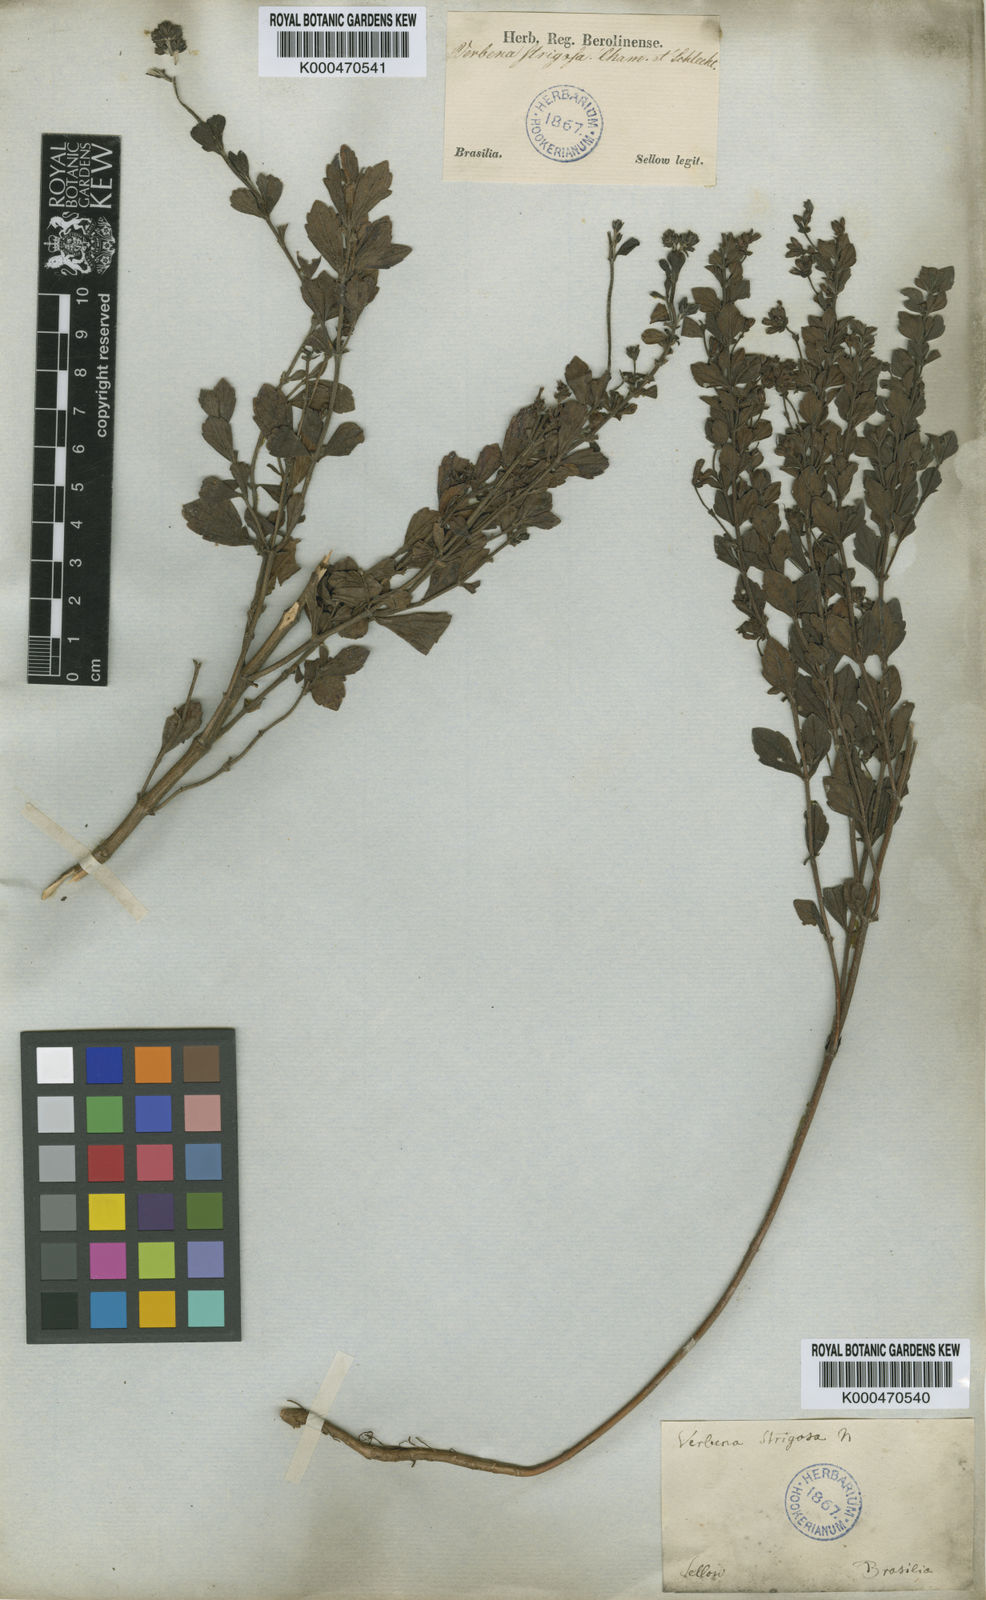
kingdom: Plantae
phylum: Tracheophyta
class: Magnoliopsida
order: Lamiales
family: Verbenaceae
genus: Verbena
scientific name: Verbena strigosa
